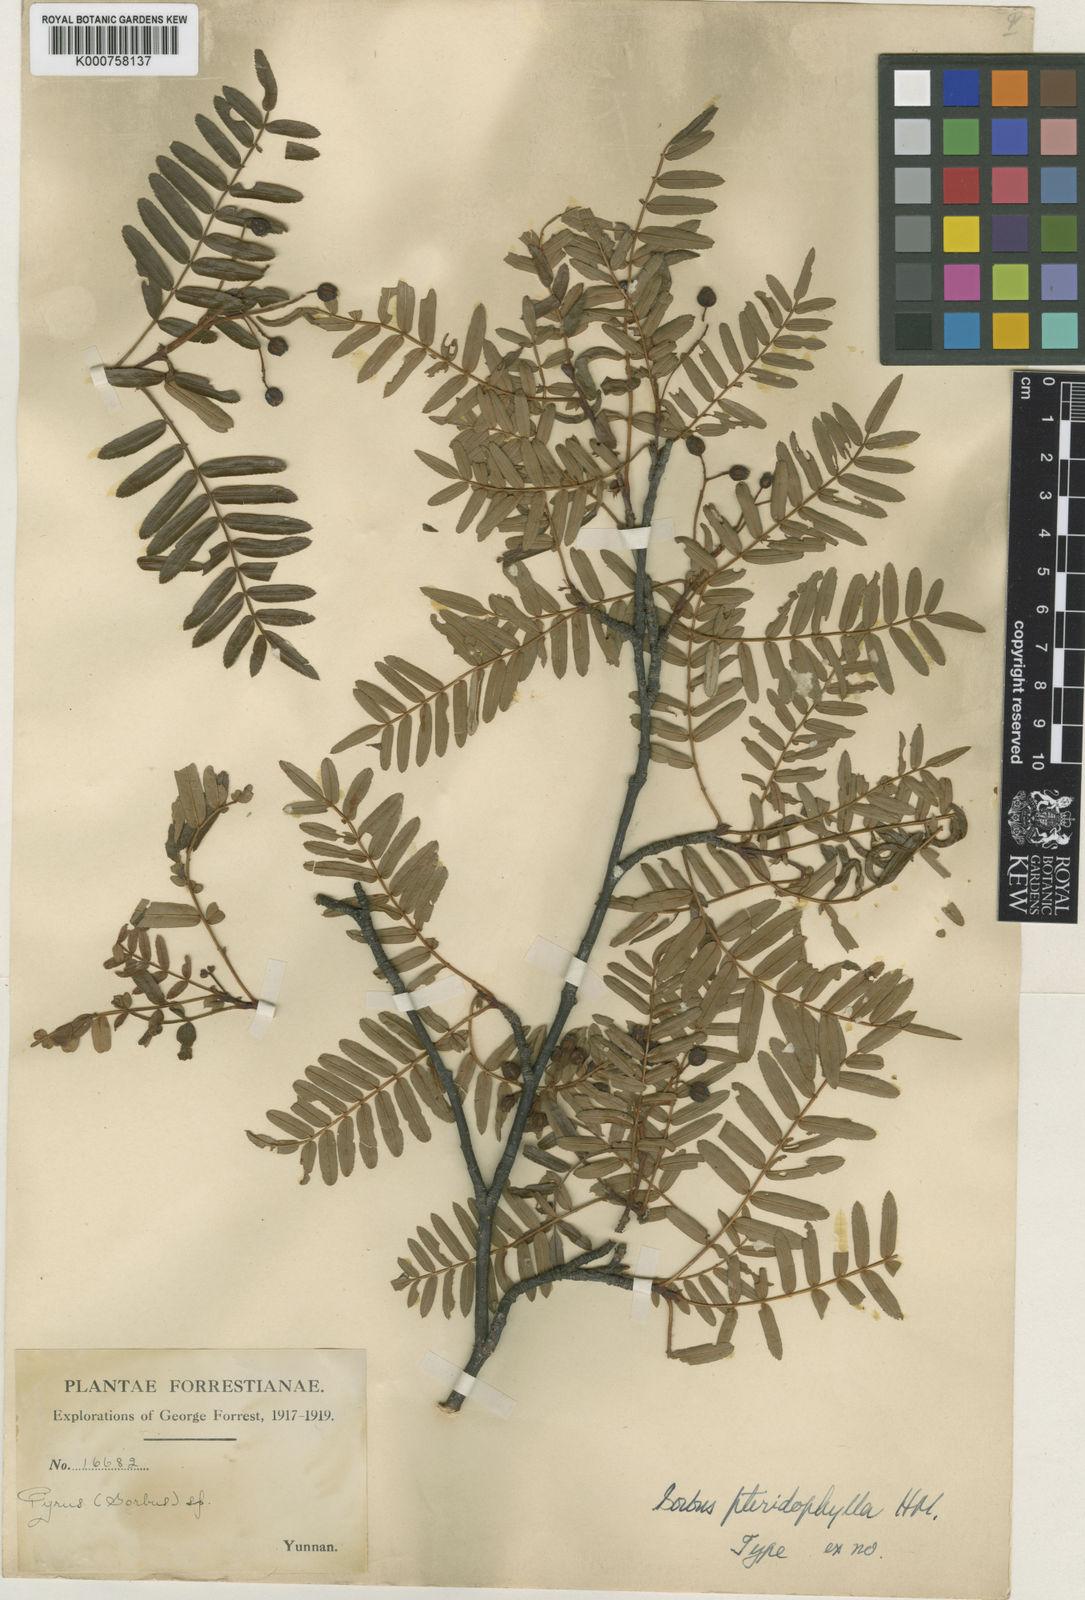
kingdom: Plantae
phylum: Tracheophyta
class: Magnoliopsida
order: Rosales
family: Rosaceae
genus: Sorbus
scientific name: Sorbus glomerulata
